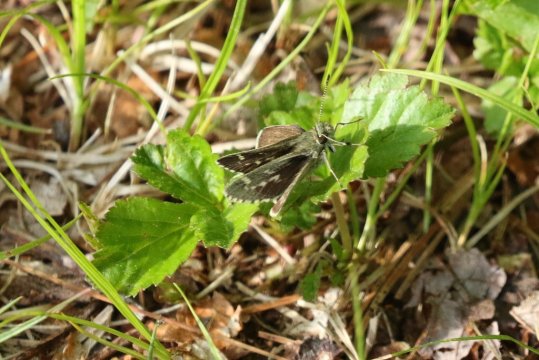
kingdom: Animalia
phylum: Arthropoda
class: Insecta
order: Lepidoptera
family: Hesperiidae
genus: Mastor
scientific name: Mastor hegon
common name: Pepper and Salt Skipper
